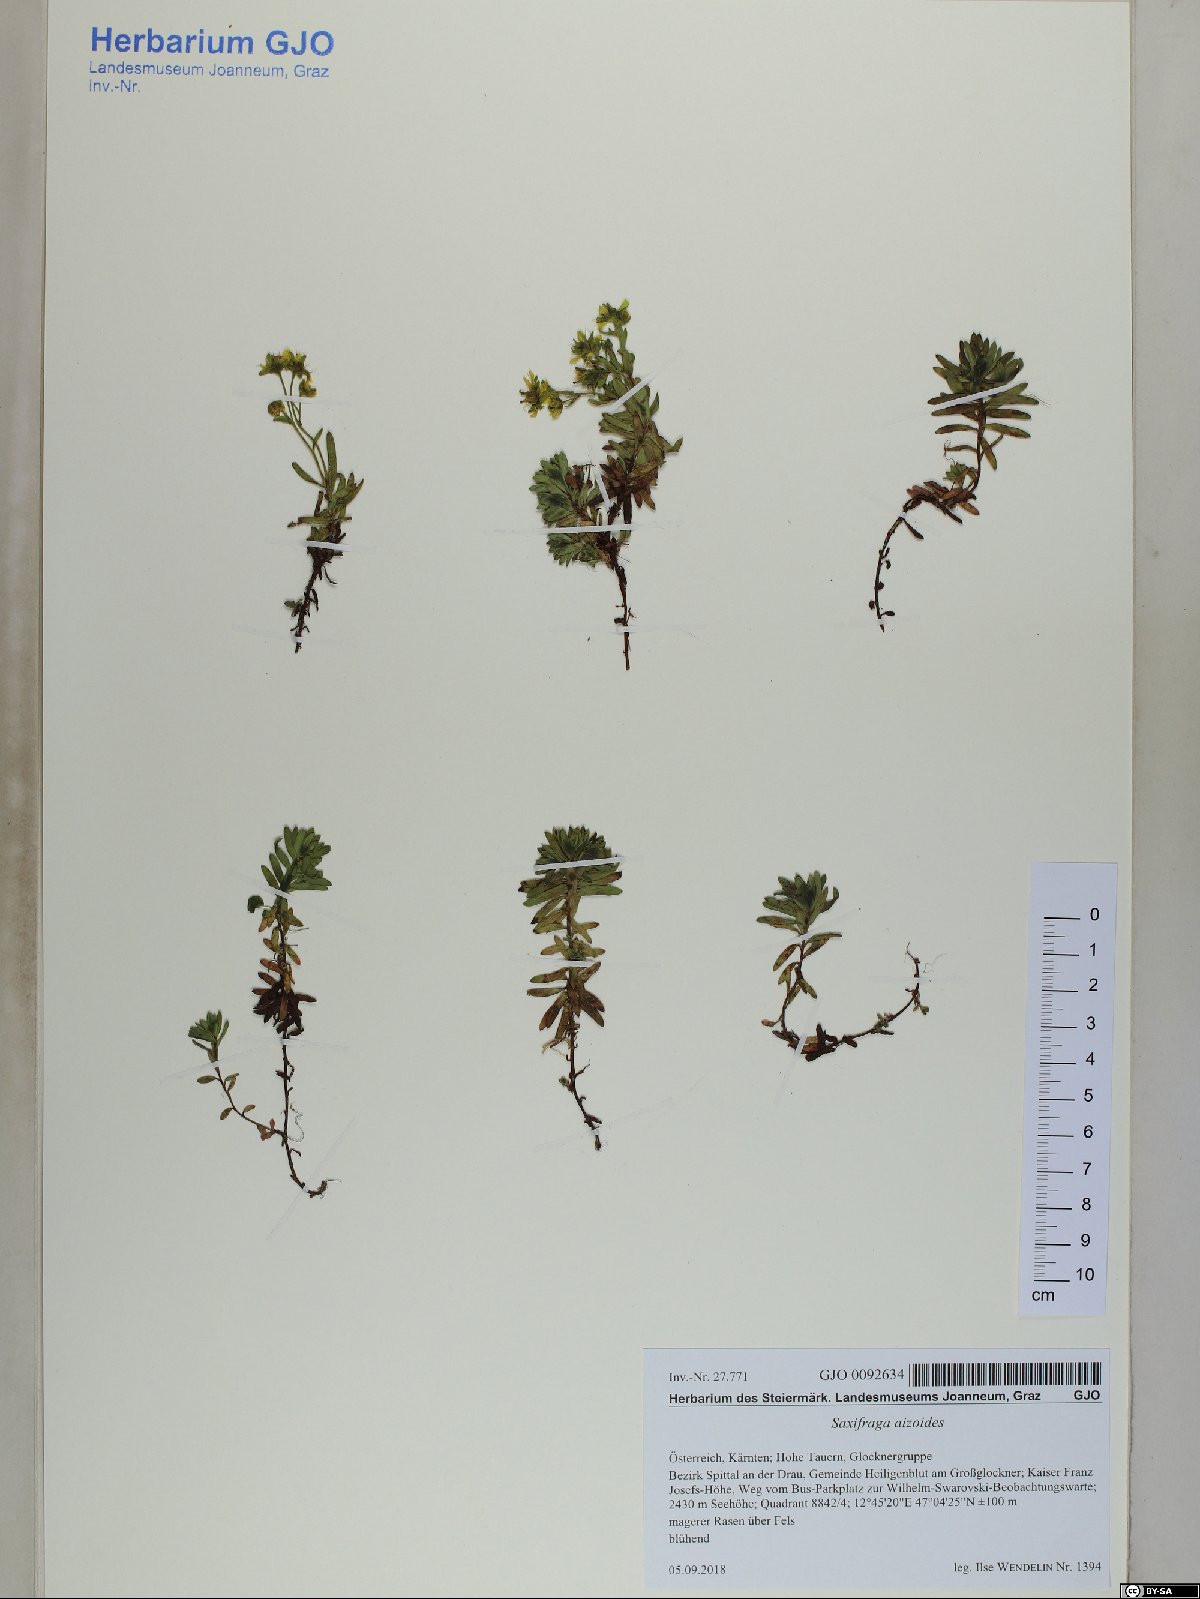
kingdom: Plantae
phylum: Tracheophyta
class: Magnoliopsida
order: Saxifragales
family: Saxifragaceae
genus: Saxifraga
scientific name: Saxifraga aizoides
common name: Yellow mountain saxifrage
